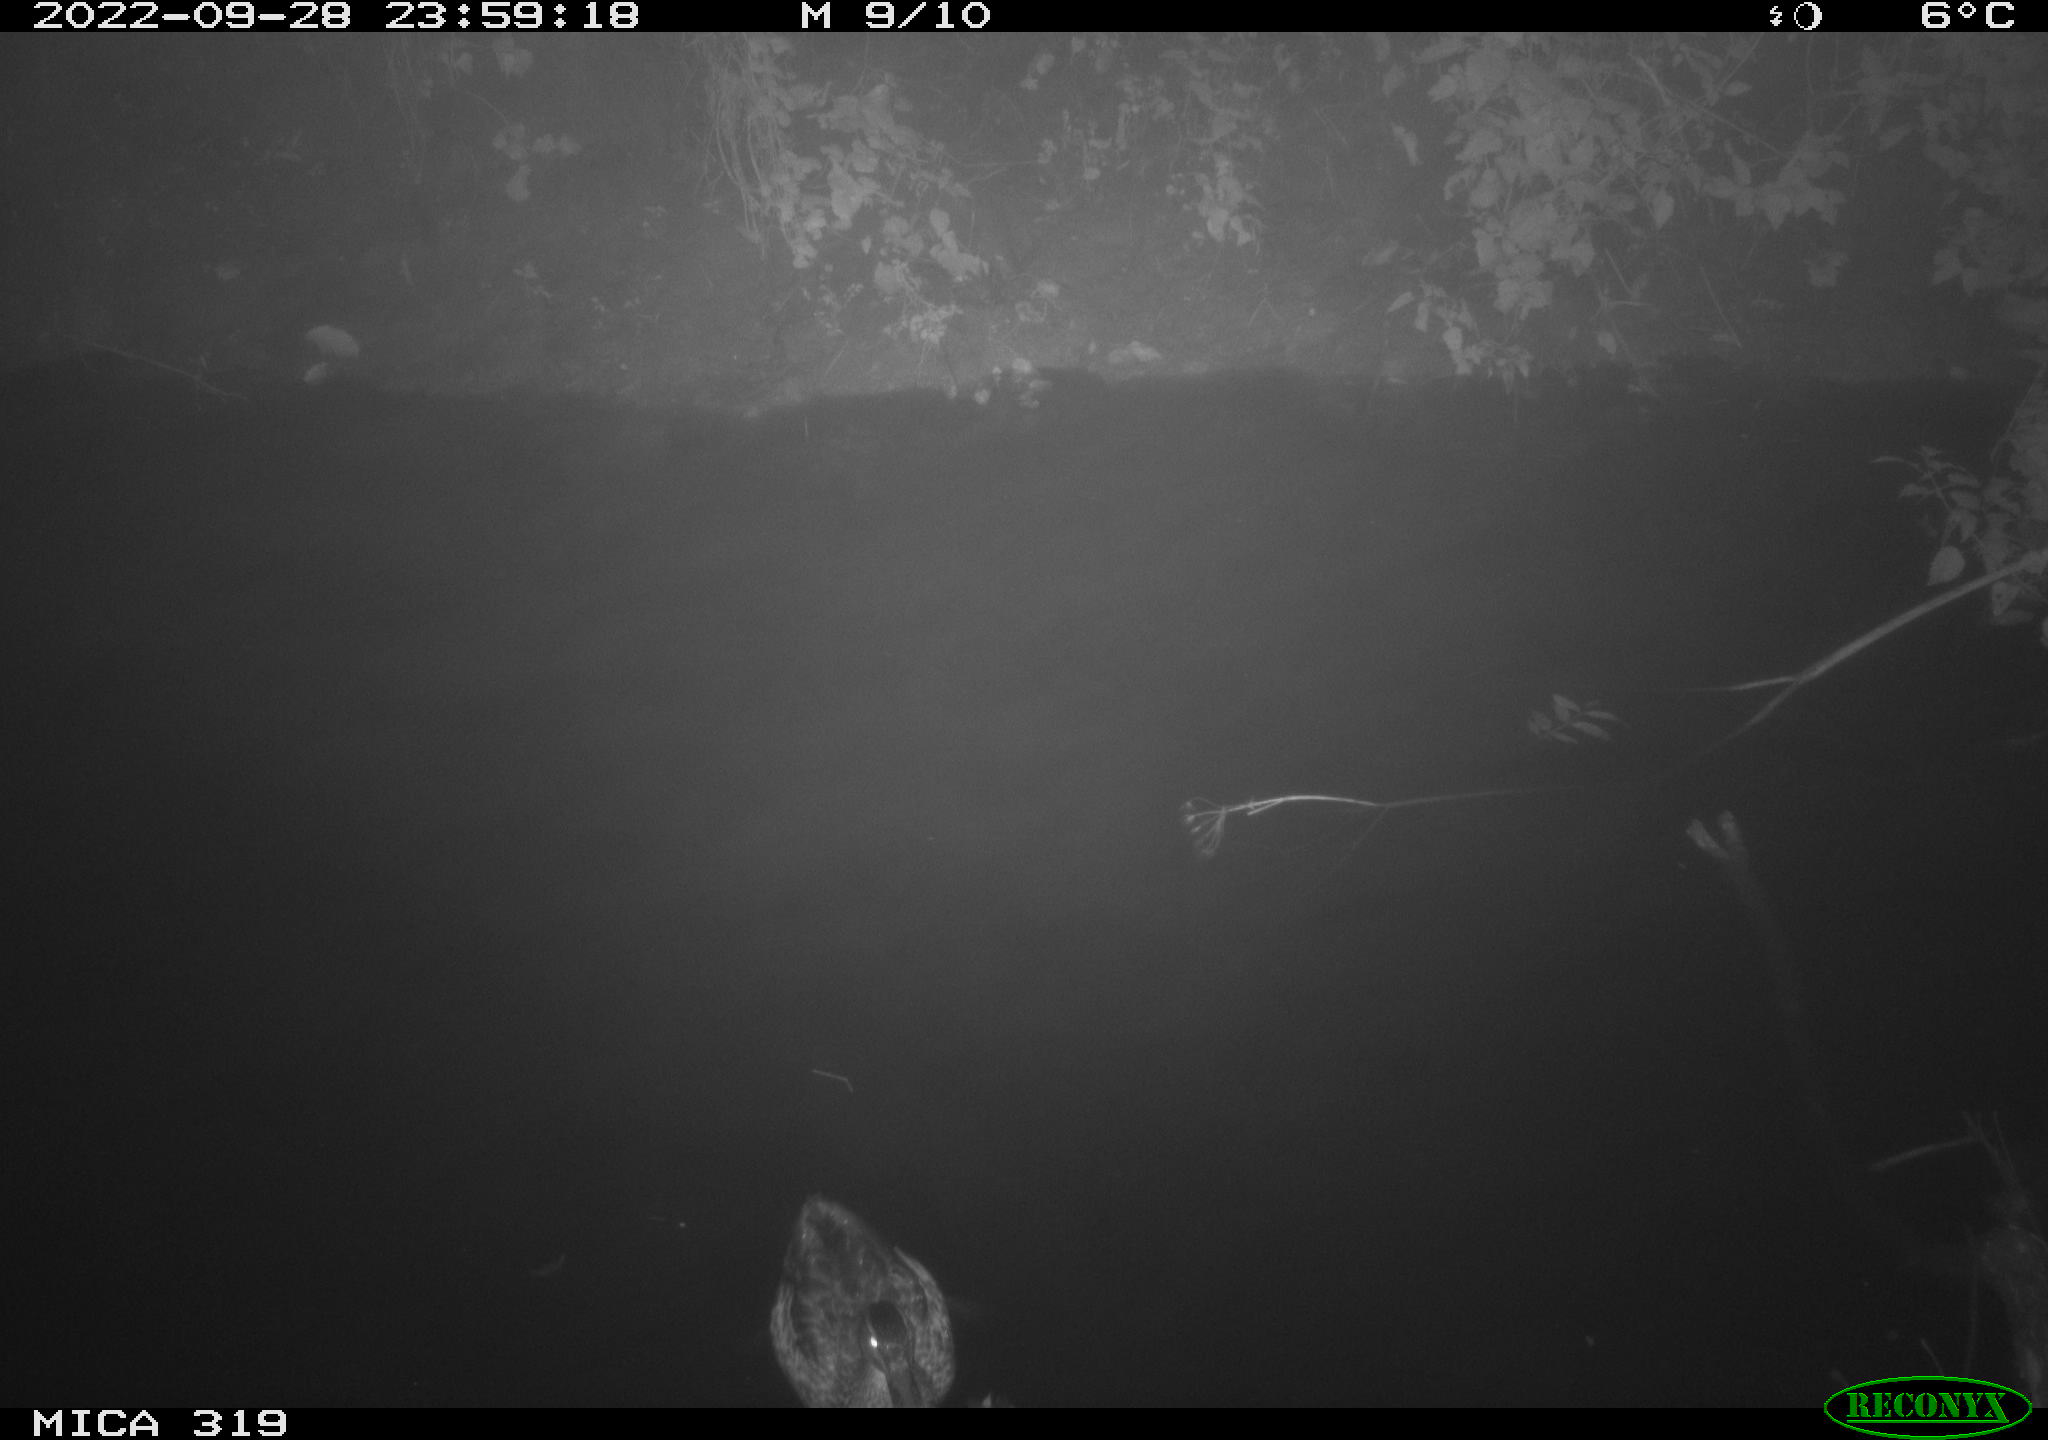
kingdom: Animalia
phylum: Chordata
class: Aves
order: Anseriformes
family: Anatidae
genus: Anas
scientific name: Anas
